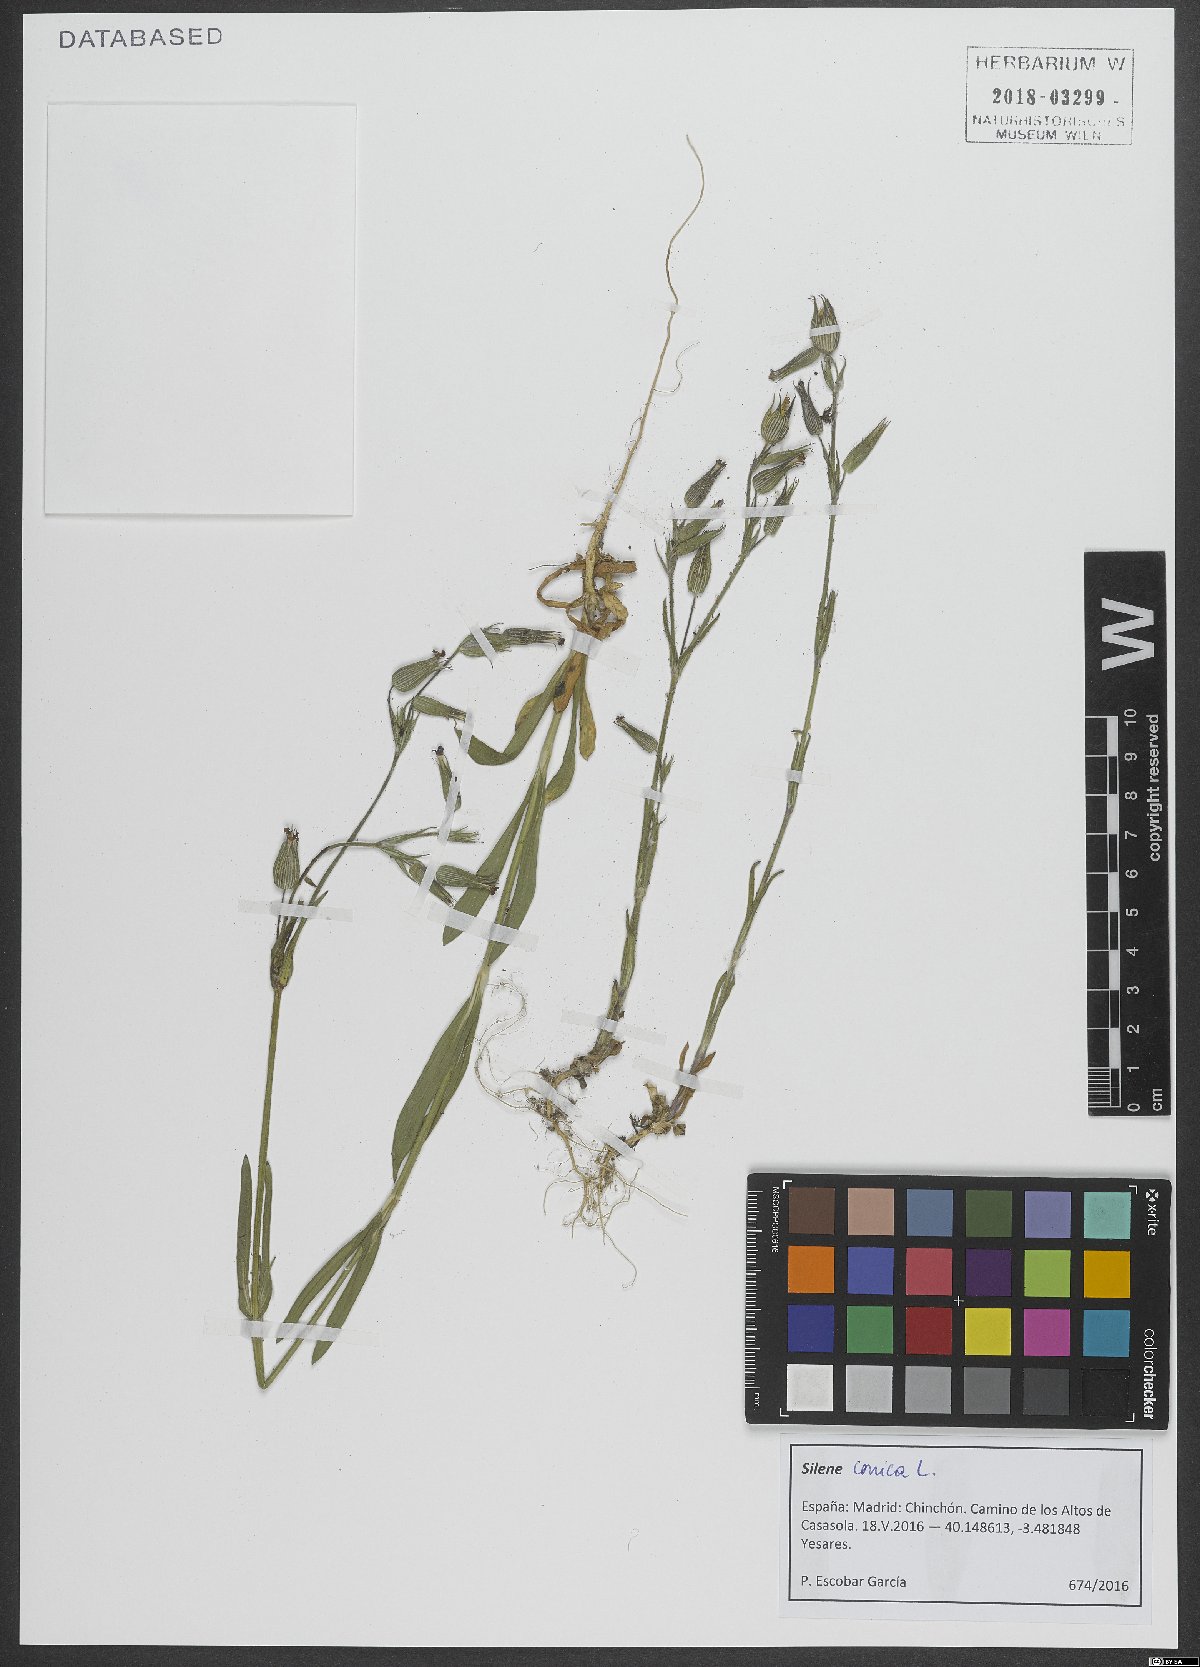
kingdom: Plantae
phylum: Tracheophyta
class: Magnoliopsida
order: Caryophyllales
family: Caryophyllaceae
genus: Silene
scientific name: Silene conica
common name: Sand catchfly
